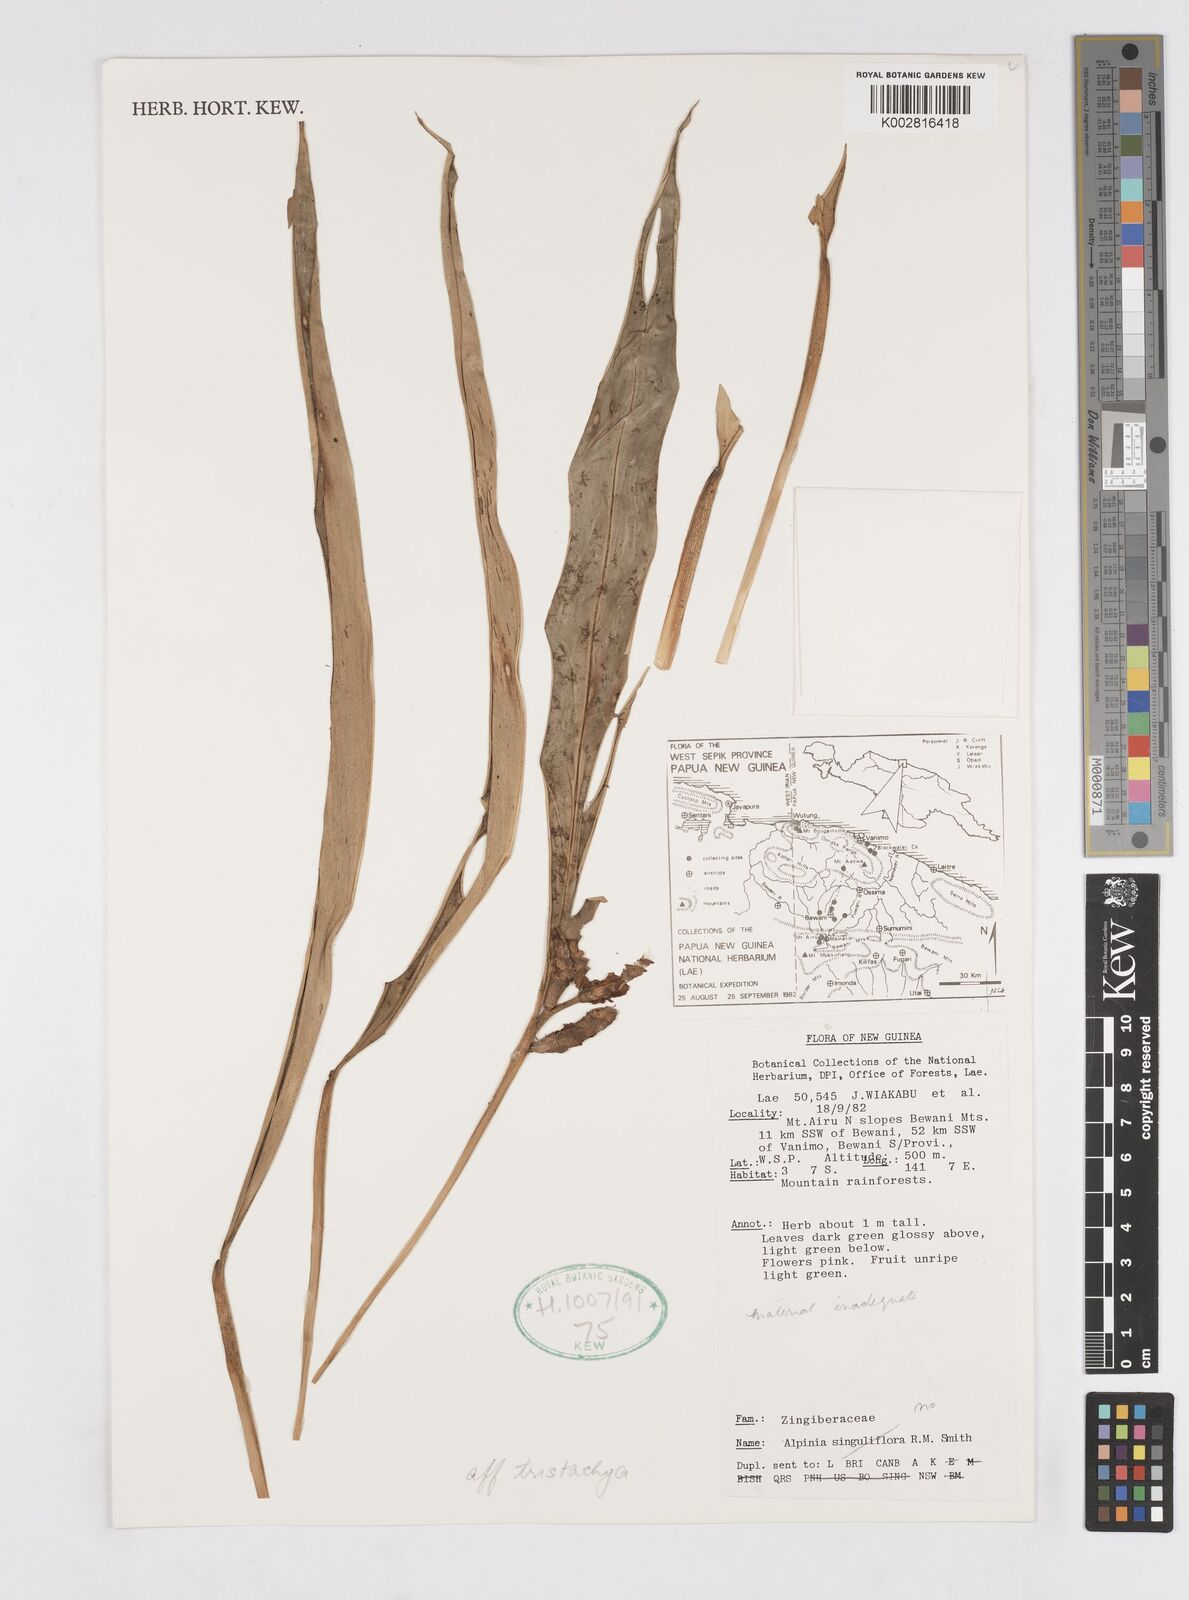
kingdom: Plantae
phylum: Tracheophyta
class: Liliopsida
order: Zingiberales
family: Zingiberaceae
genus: Alpinia
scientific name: Alpinia tristachya
